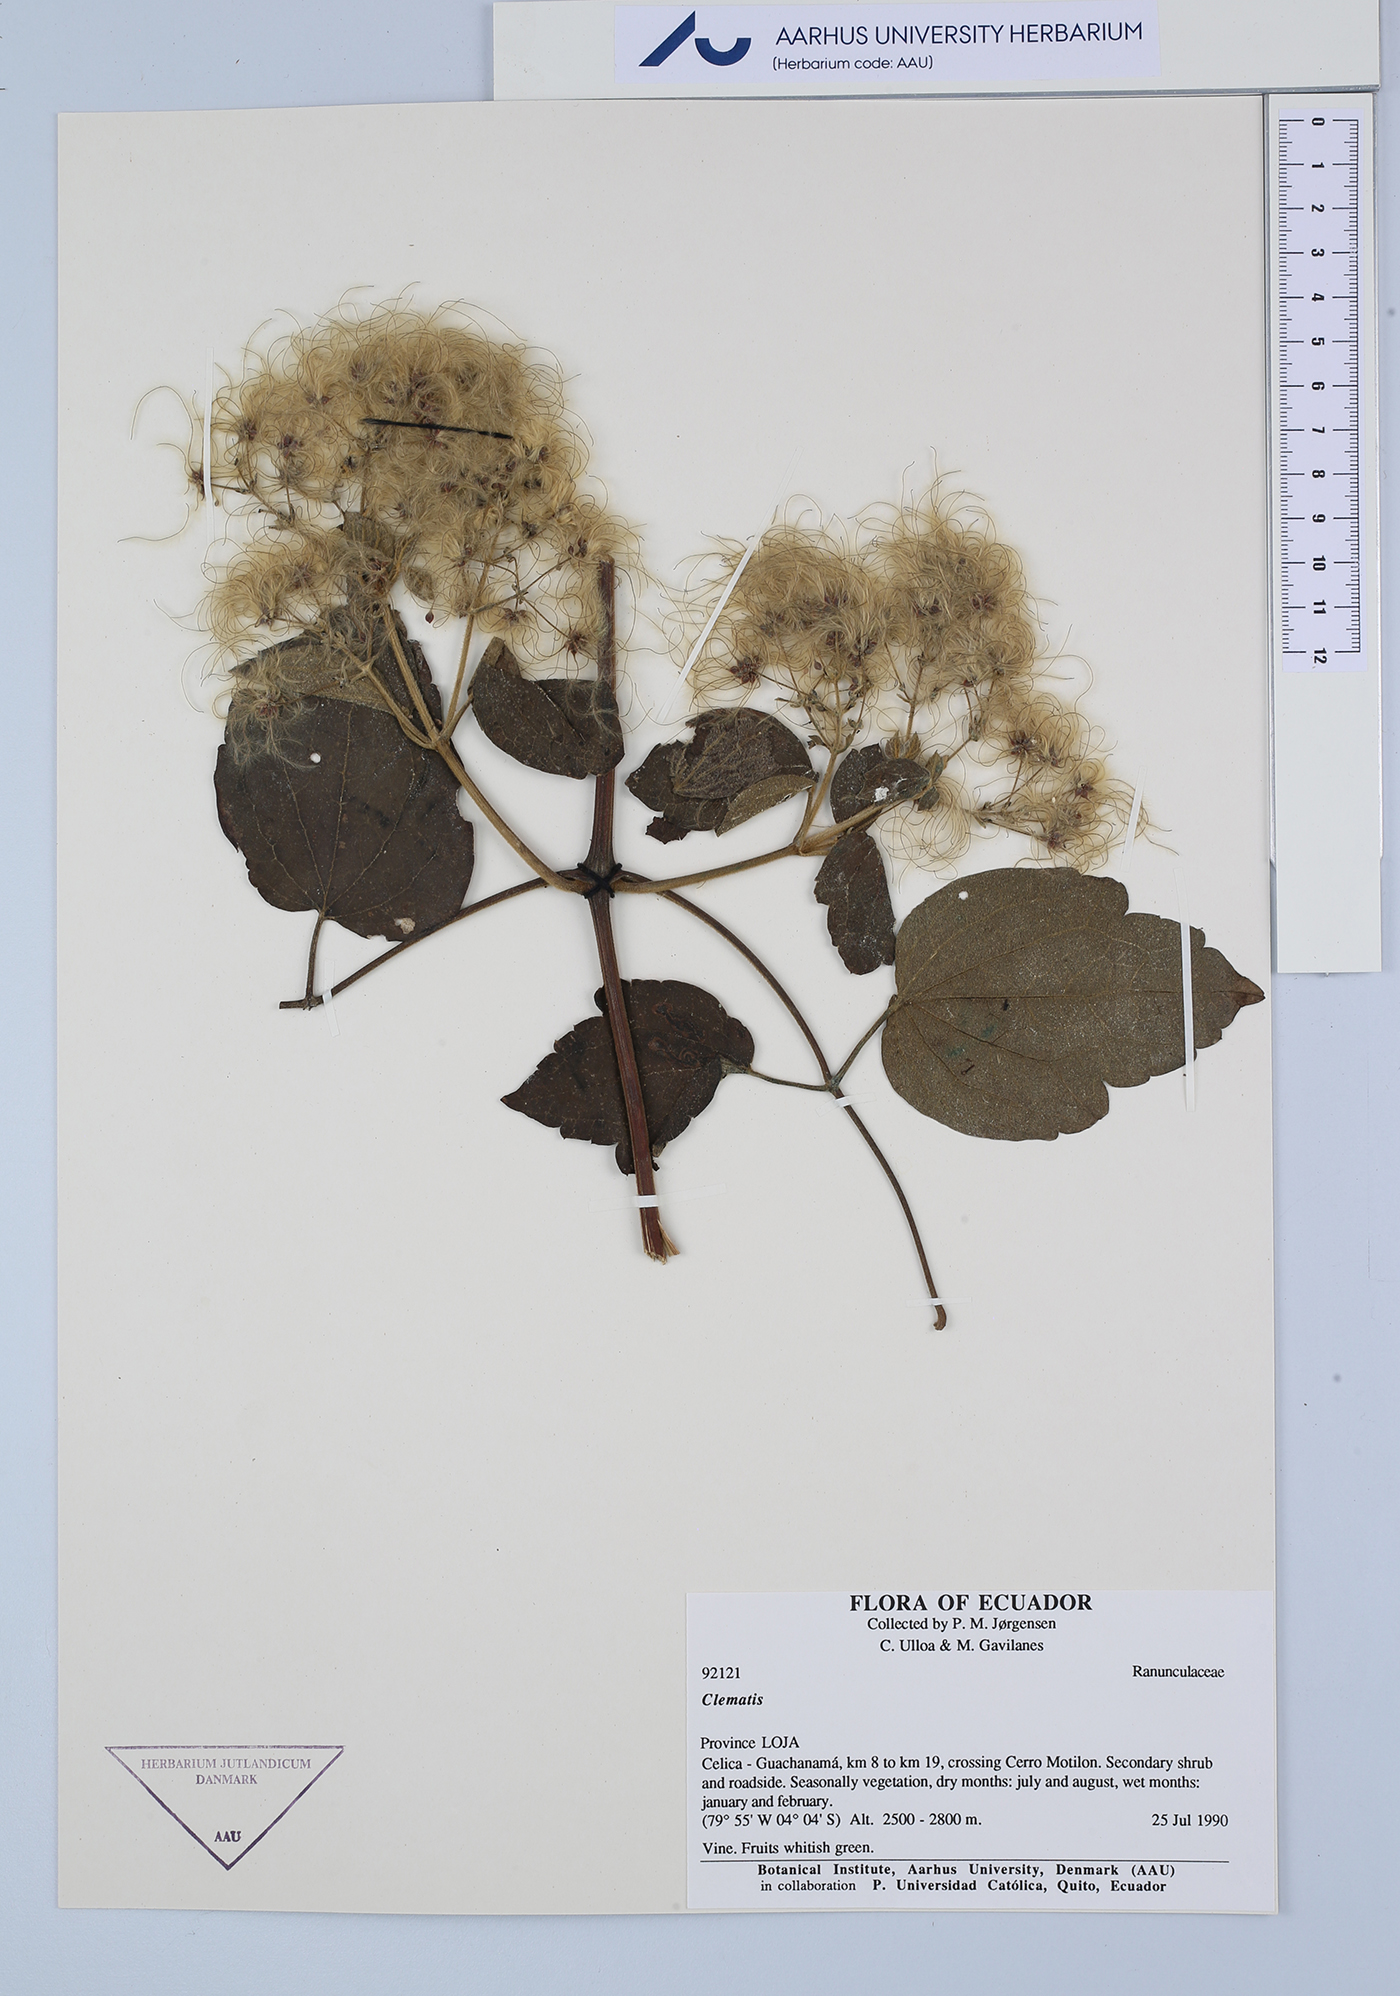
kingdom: Plantae
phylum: Tracheophyta
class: Magnoliopsida
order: Ranunculales
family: Ranunculaceae
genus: Clematis
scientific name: Clematis
